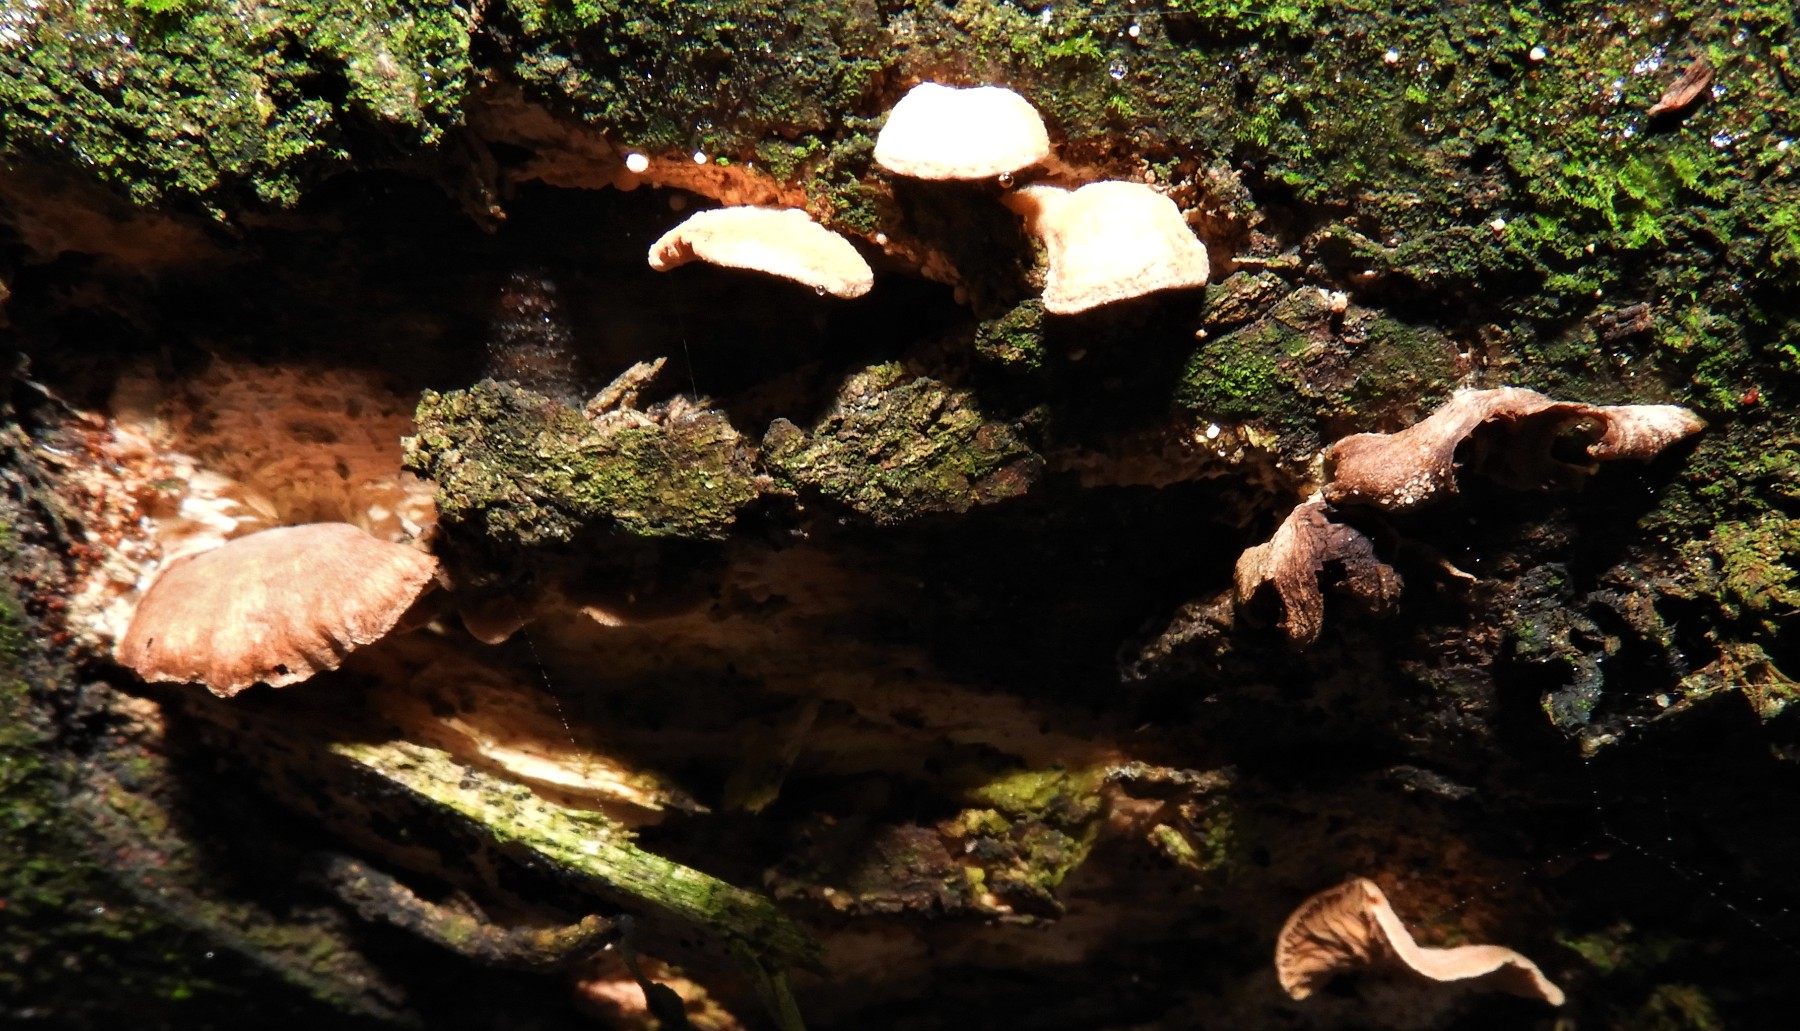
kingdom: Fungi
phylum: Basidiomycota
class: Agaricomycetes
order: Agaricales
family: Strophariaceae
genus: Deconica
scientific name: Deconica horizontalis
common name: ved-stråhat
